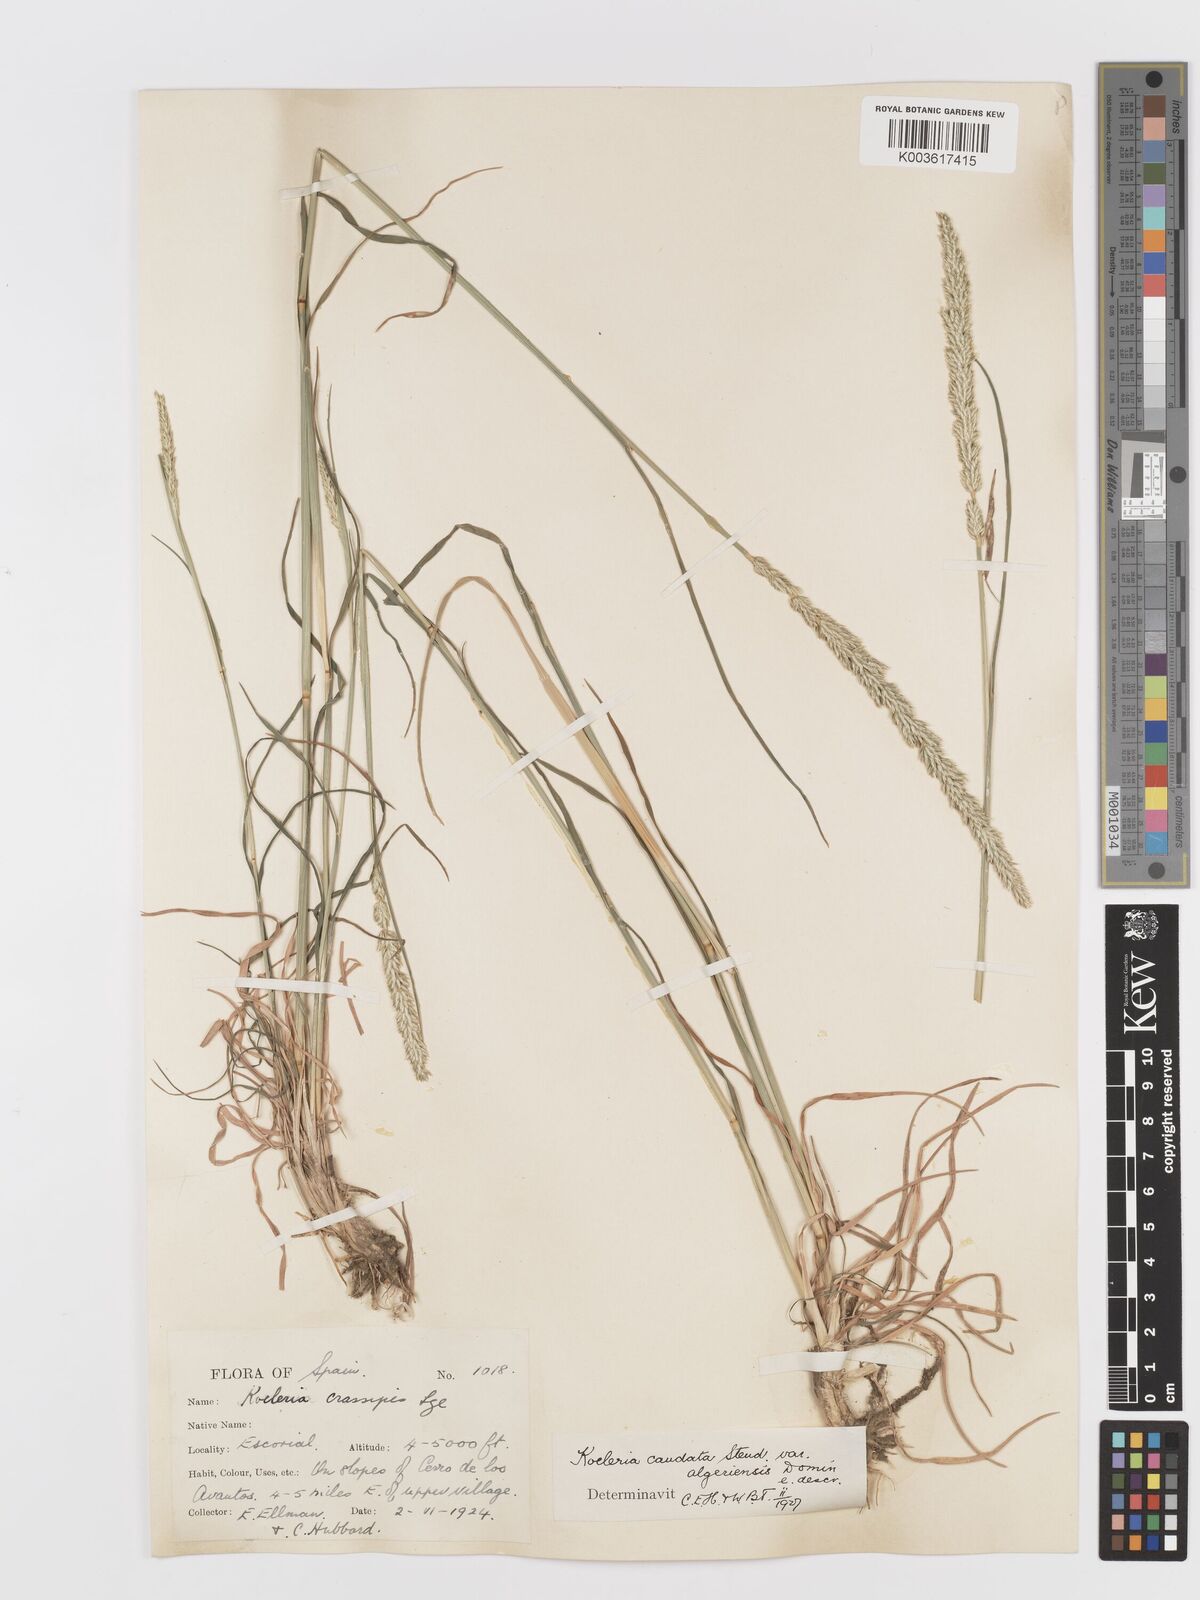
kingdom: Plantae
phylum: Tracheophyta
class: Liliopsida
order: Poales
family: Poaceae
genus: Koeleria
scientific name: Koeleria crassipes
